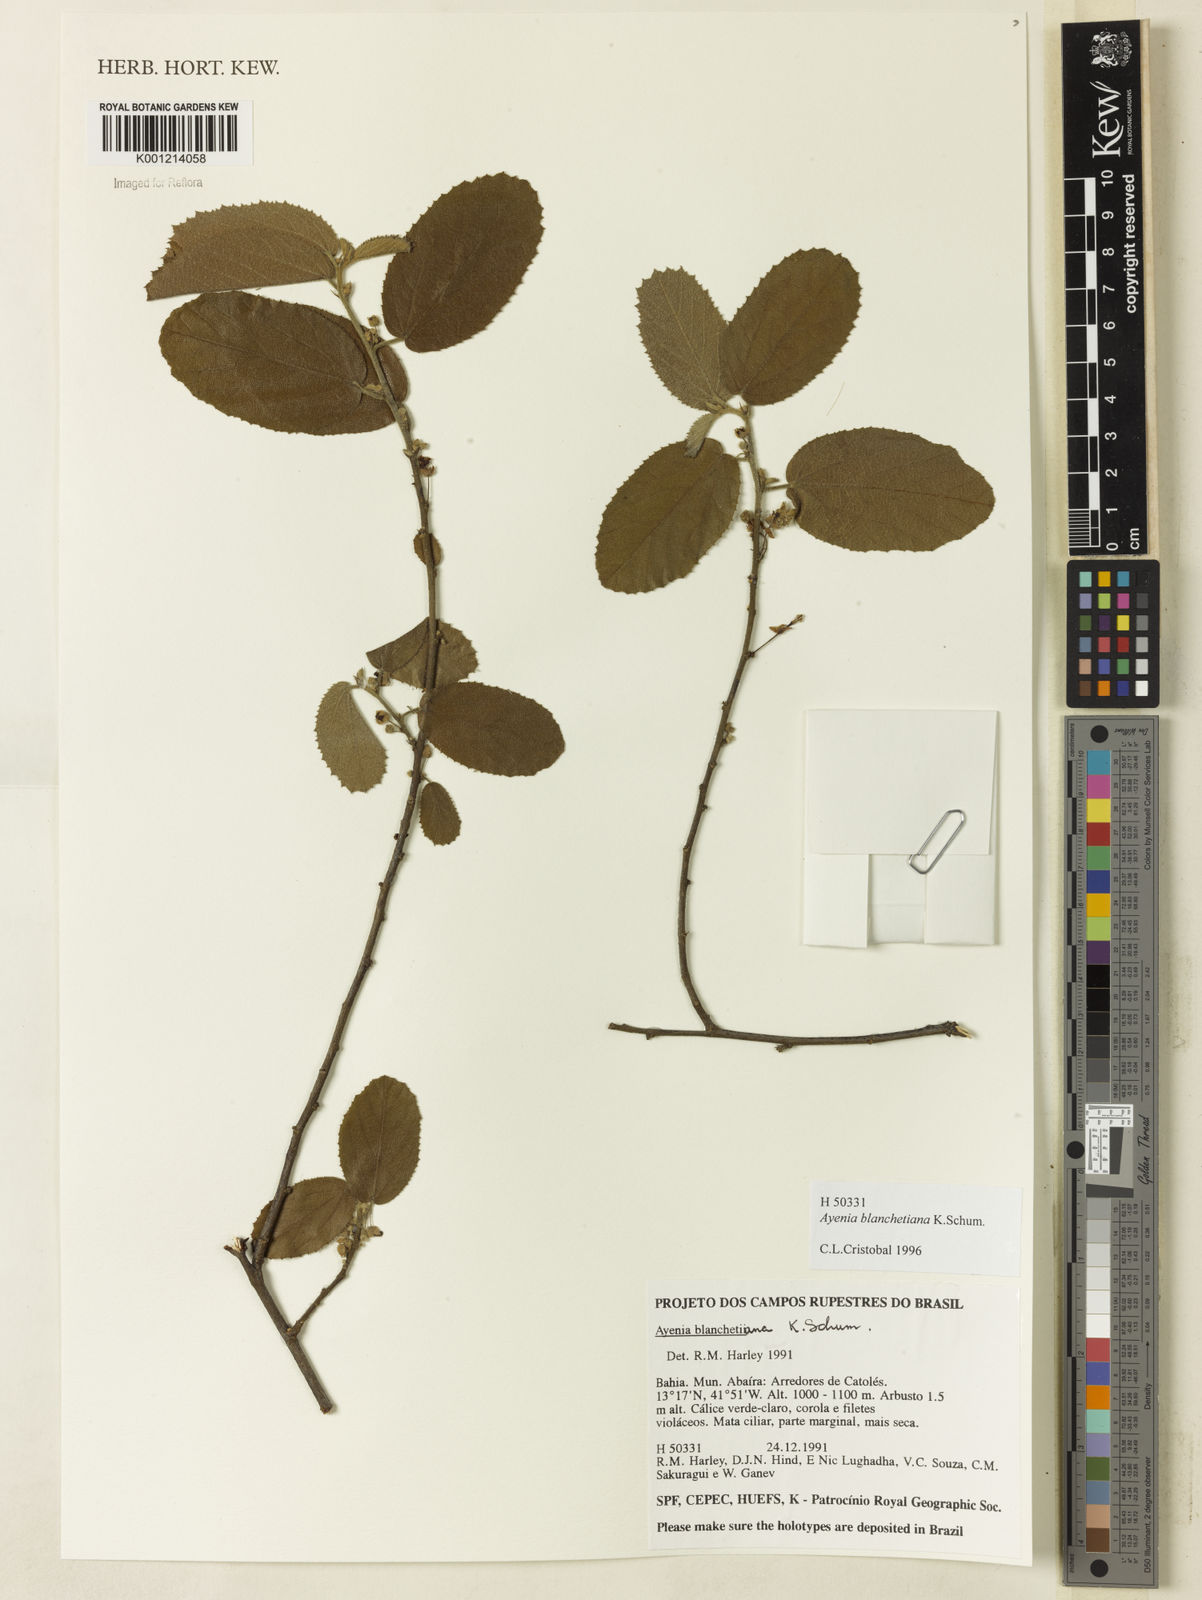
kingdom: Plantae
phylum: Tracheophyta
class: Magnoliopsida
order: Malvales
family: Malvaceae
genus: Ayenia
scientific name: Ayenia blanchetiana
